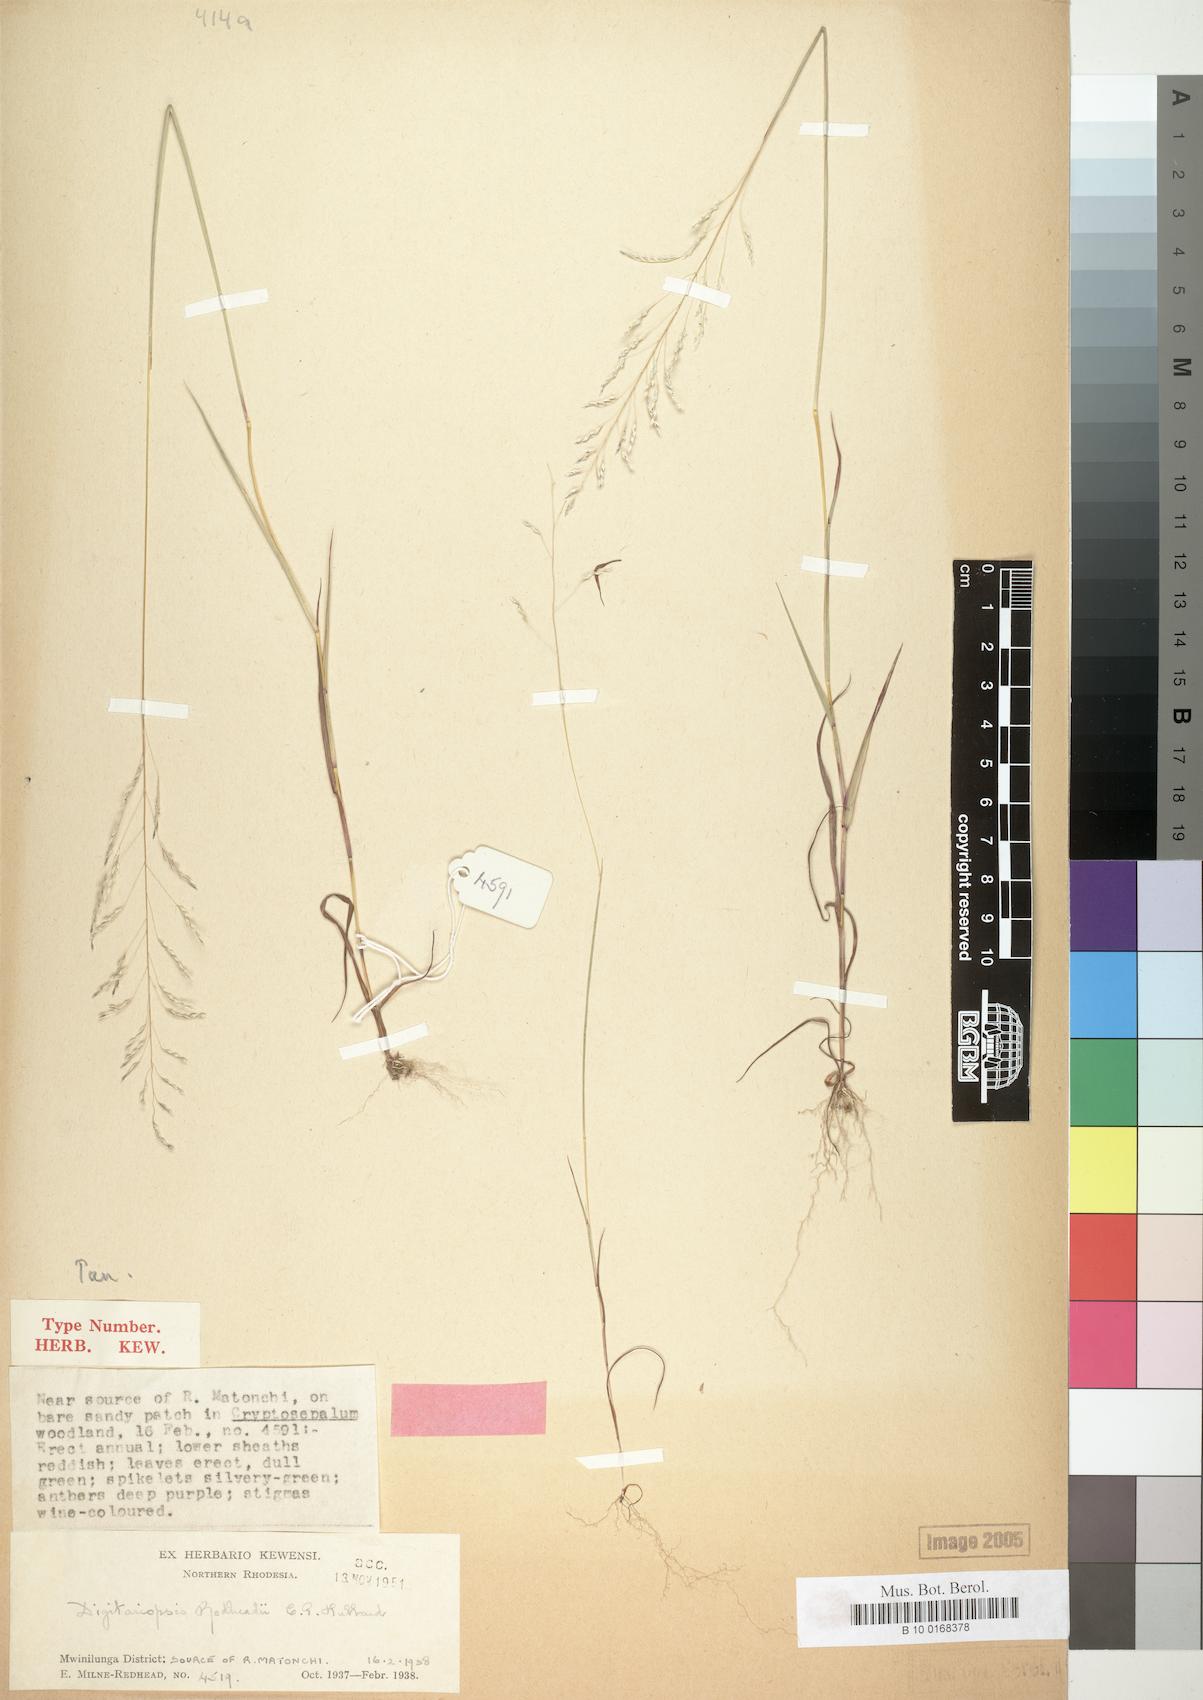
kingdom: Plantae
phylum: Tracheophyta
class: Liliopsida
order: Poales
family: Poaceae
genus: Digitaria
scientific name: Digitaria redheadii
